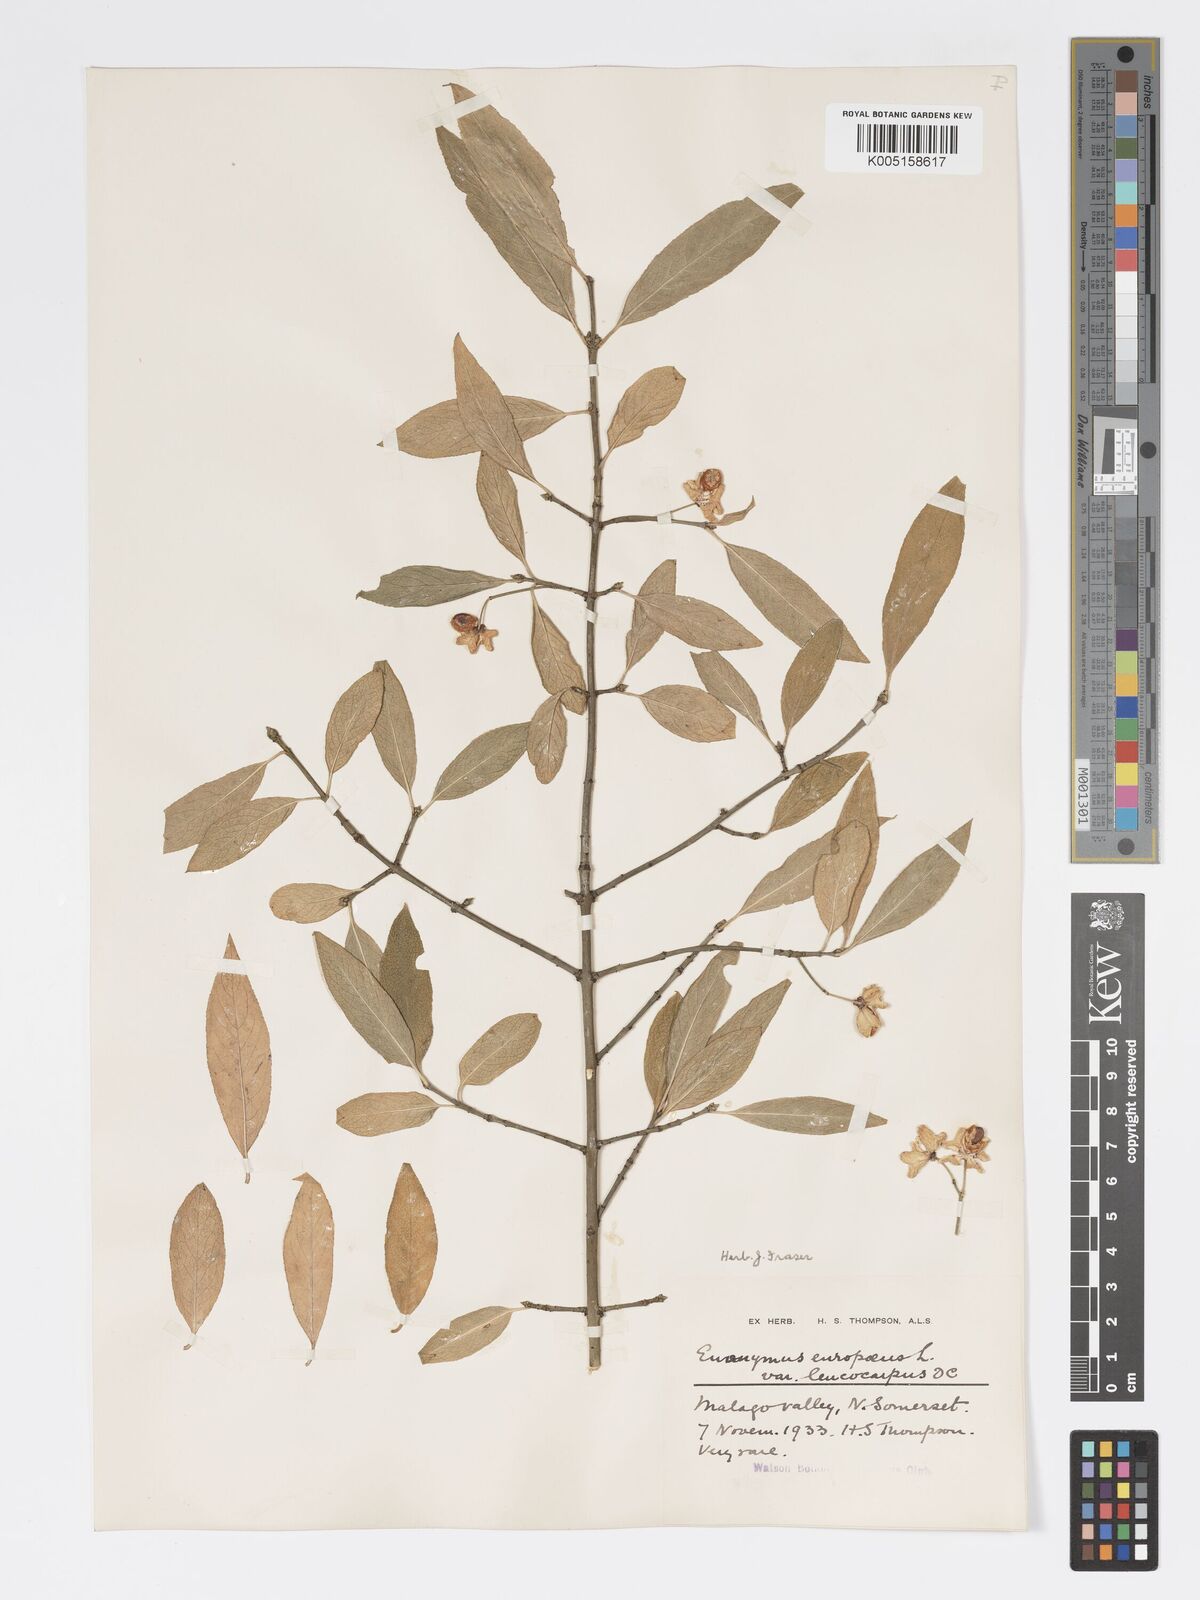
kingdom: Plantae
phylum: Tracheophyta
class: Magnoliopsida
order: Celastrales
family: Celastraceae
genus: Euonymus
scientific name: Euonymus europaeus
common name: Spindle
